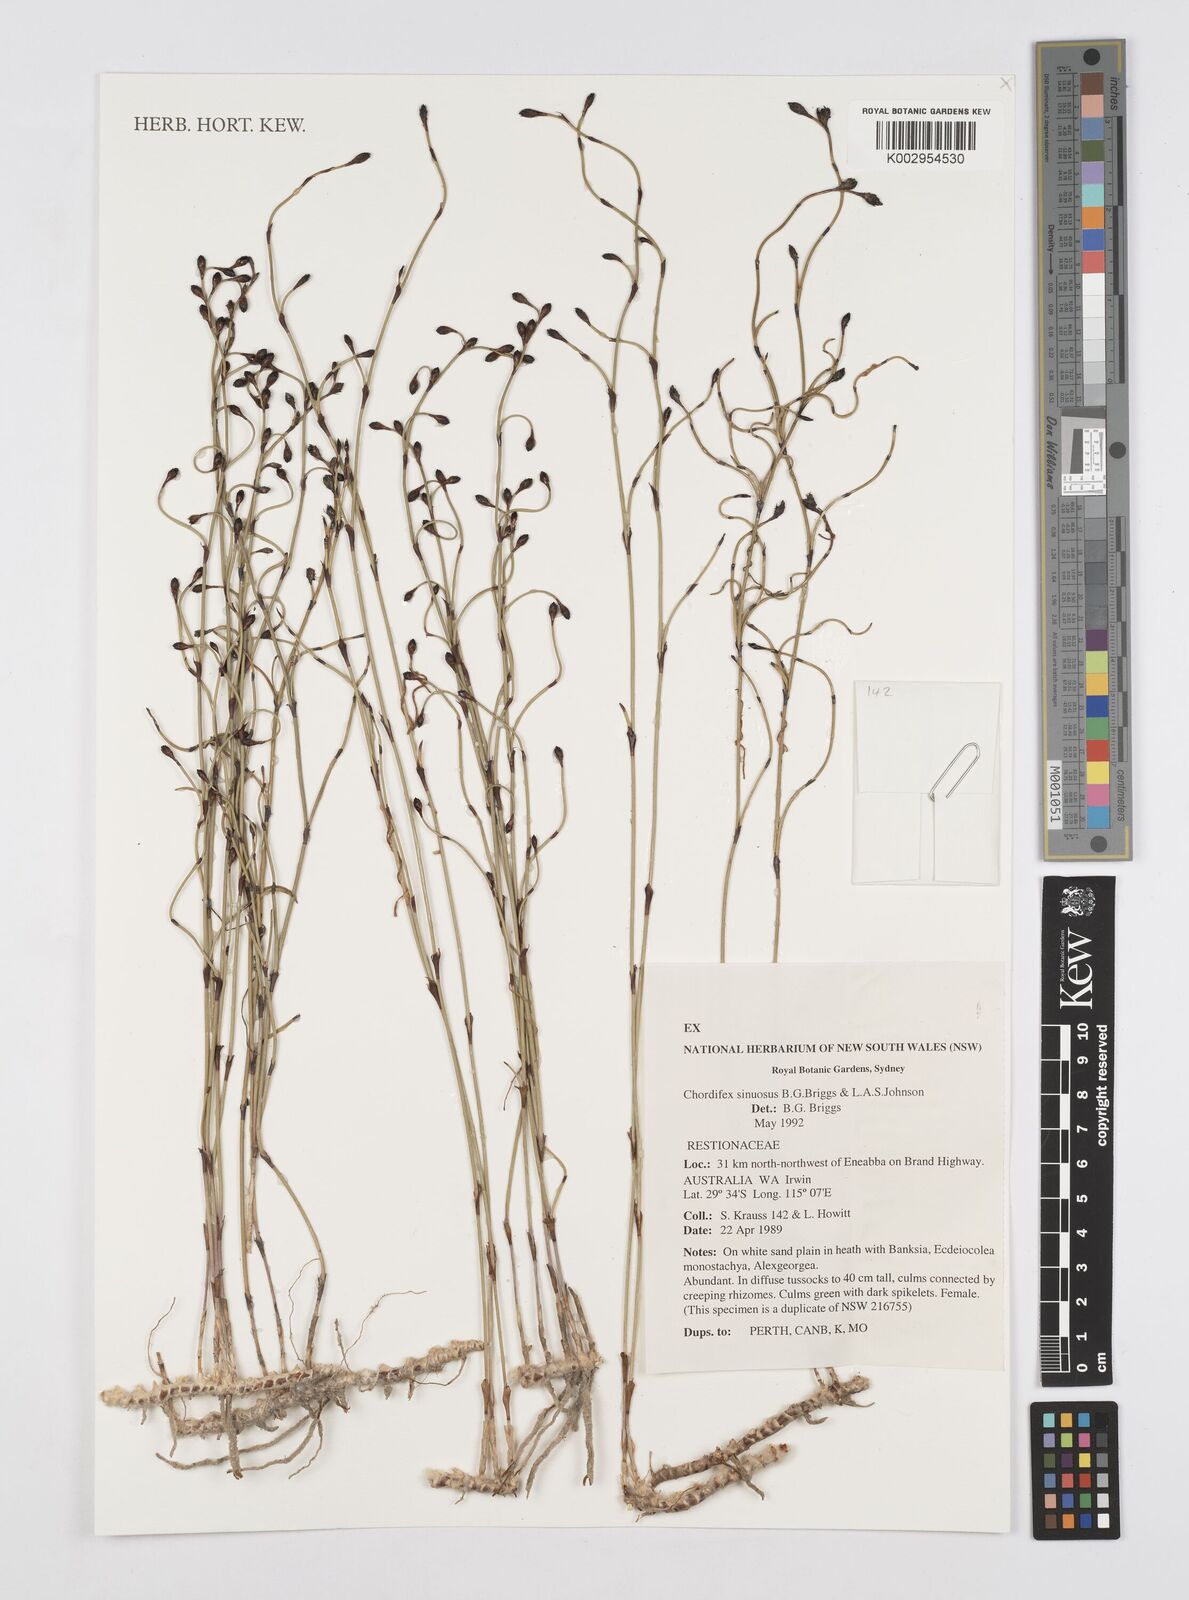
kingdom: Plantae
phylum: Tracheophyta
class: Liliopsida
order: Poales
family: Restionaceae
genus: Chordifex
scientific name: Chordifex sinuosus
